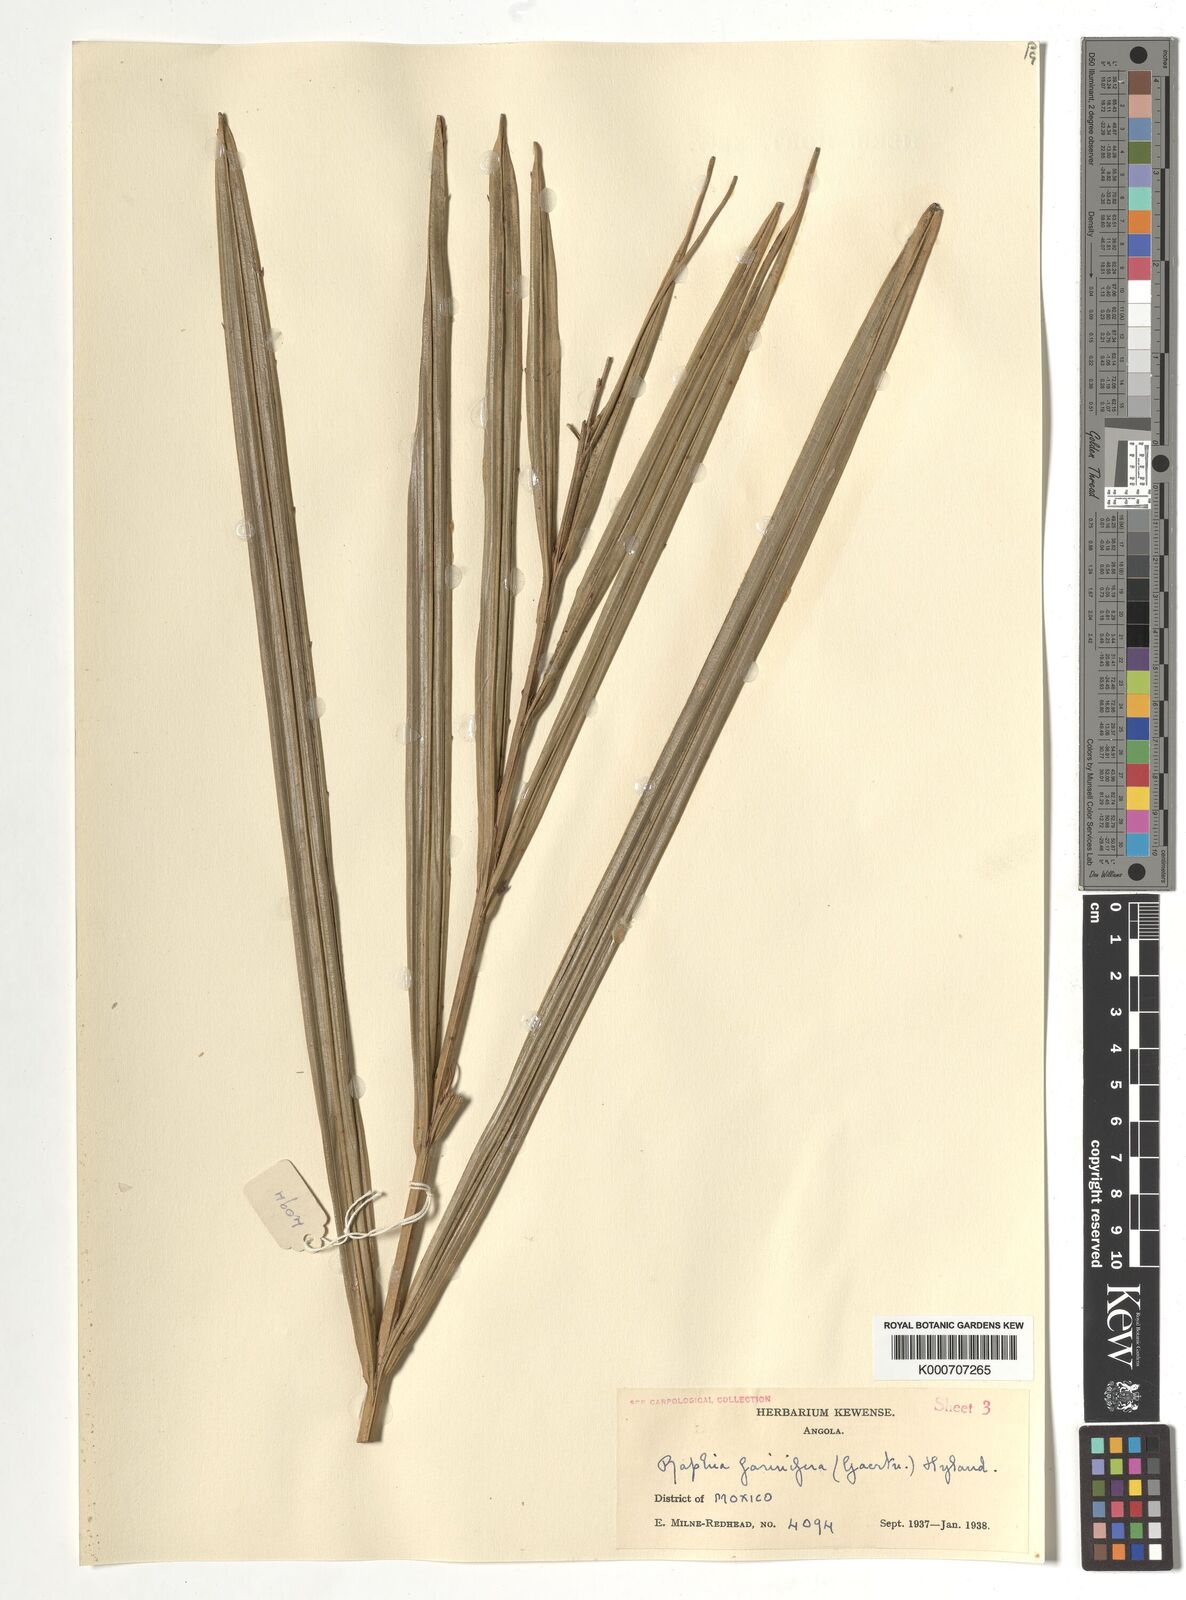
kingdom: Plantae
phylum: Tracheophyta
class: Liliopsida
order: Arecales
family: Arecaceae
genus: Raphia
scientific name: Raphia farinifera
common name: Raphia palm
